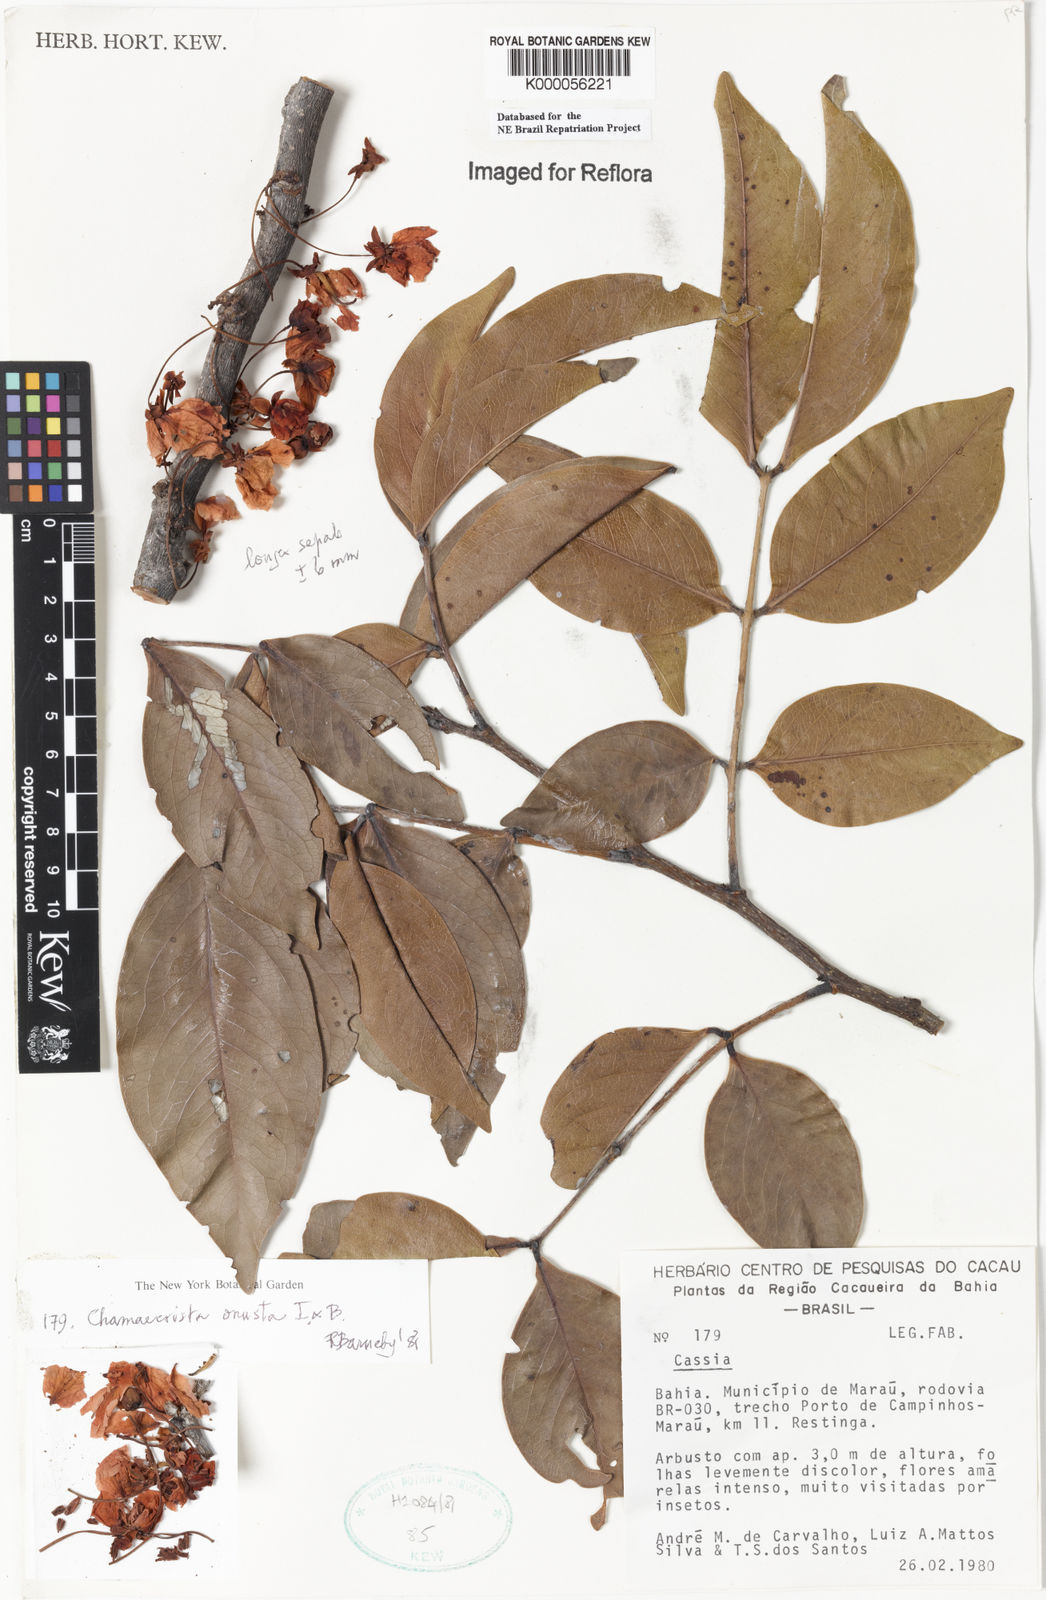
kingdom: Plantae
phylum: Tracheophyta
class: Magnoliopsida
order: Fabales
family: Fabaceae
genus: Chamaecrista
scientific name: Chamaecrista onusta
